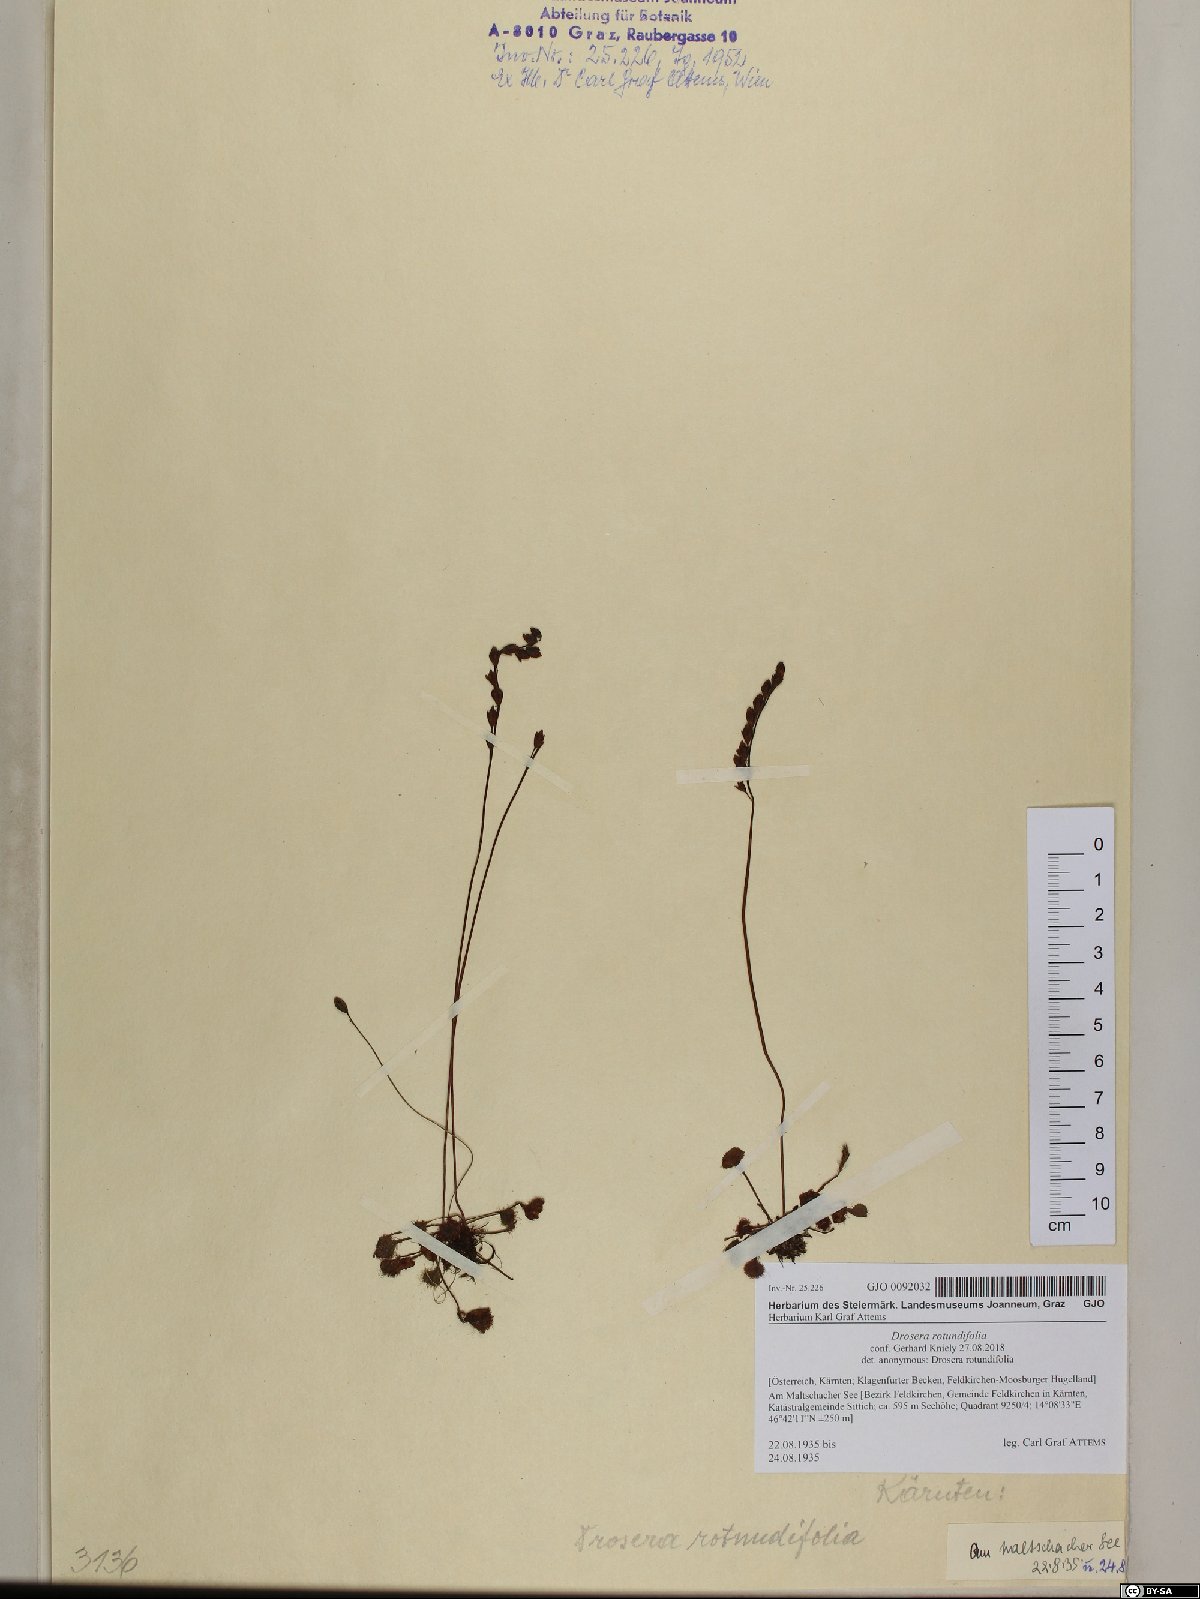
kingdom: Plantae
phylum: Tracheophyta
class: Magnoliopsida
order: Caryophyllales
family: Droseraceae
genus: Drosera
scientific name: Drosera rotundifolia
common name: Round-leaved sundew
